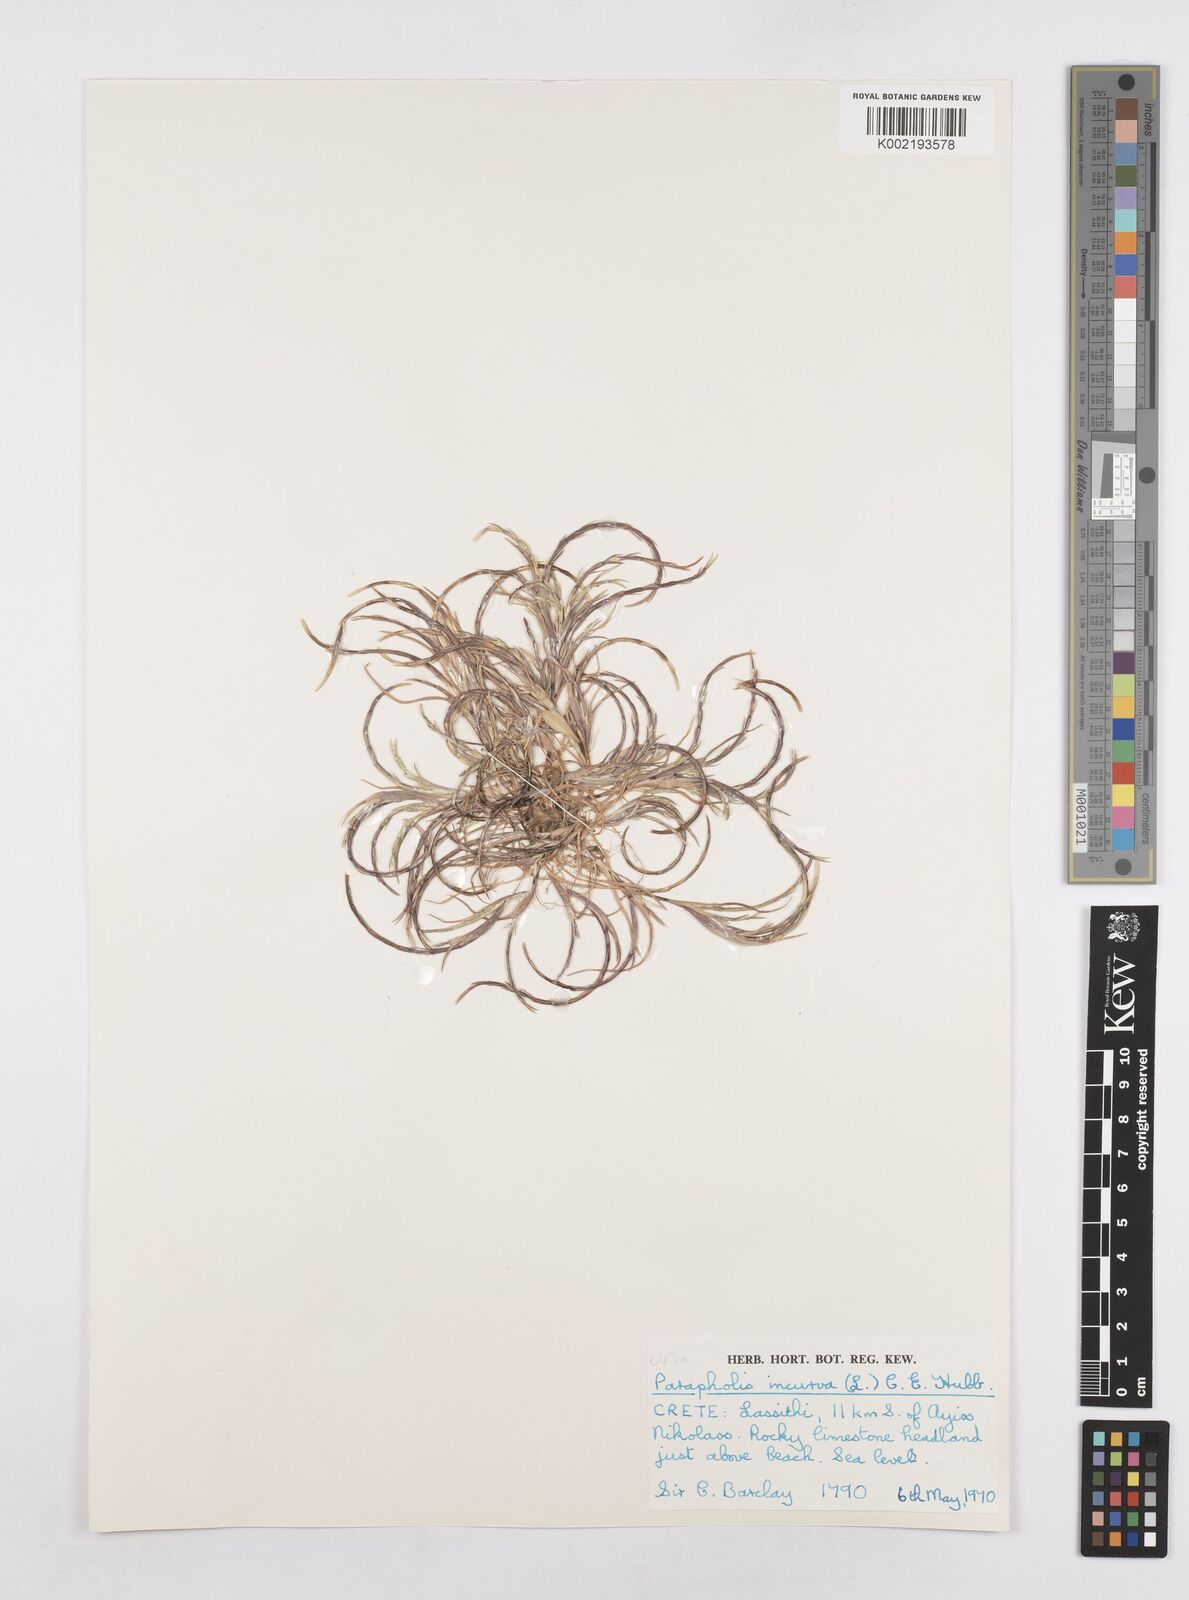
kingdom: Plantae
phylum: Tracheophyta
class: Liliopsida
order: Poales
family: Poaceae
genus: Parapholis
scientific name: Parapholis incurva
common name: Curved sicklegrass
